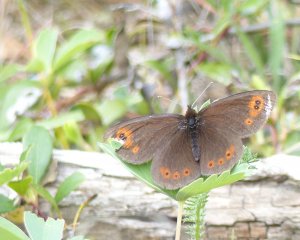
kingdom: Animalia
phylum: Arthropoda
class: Insecta
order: Lepidoptera
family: Nymphalidae
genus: Erebia
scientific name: Erebia epipsodea
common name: Common Alpine
